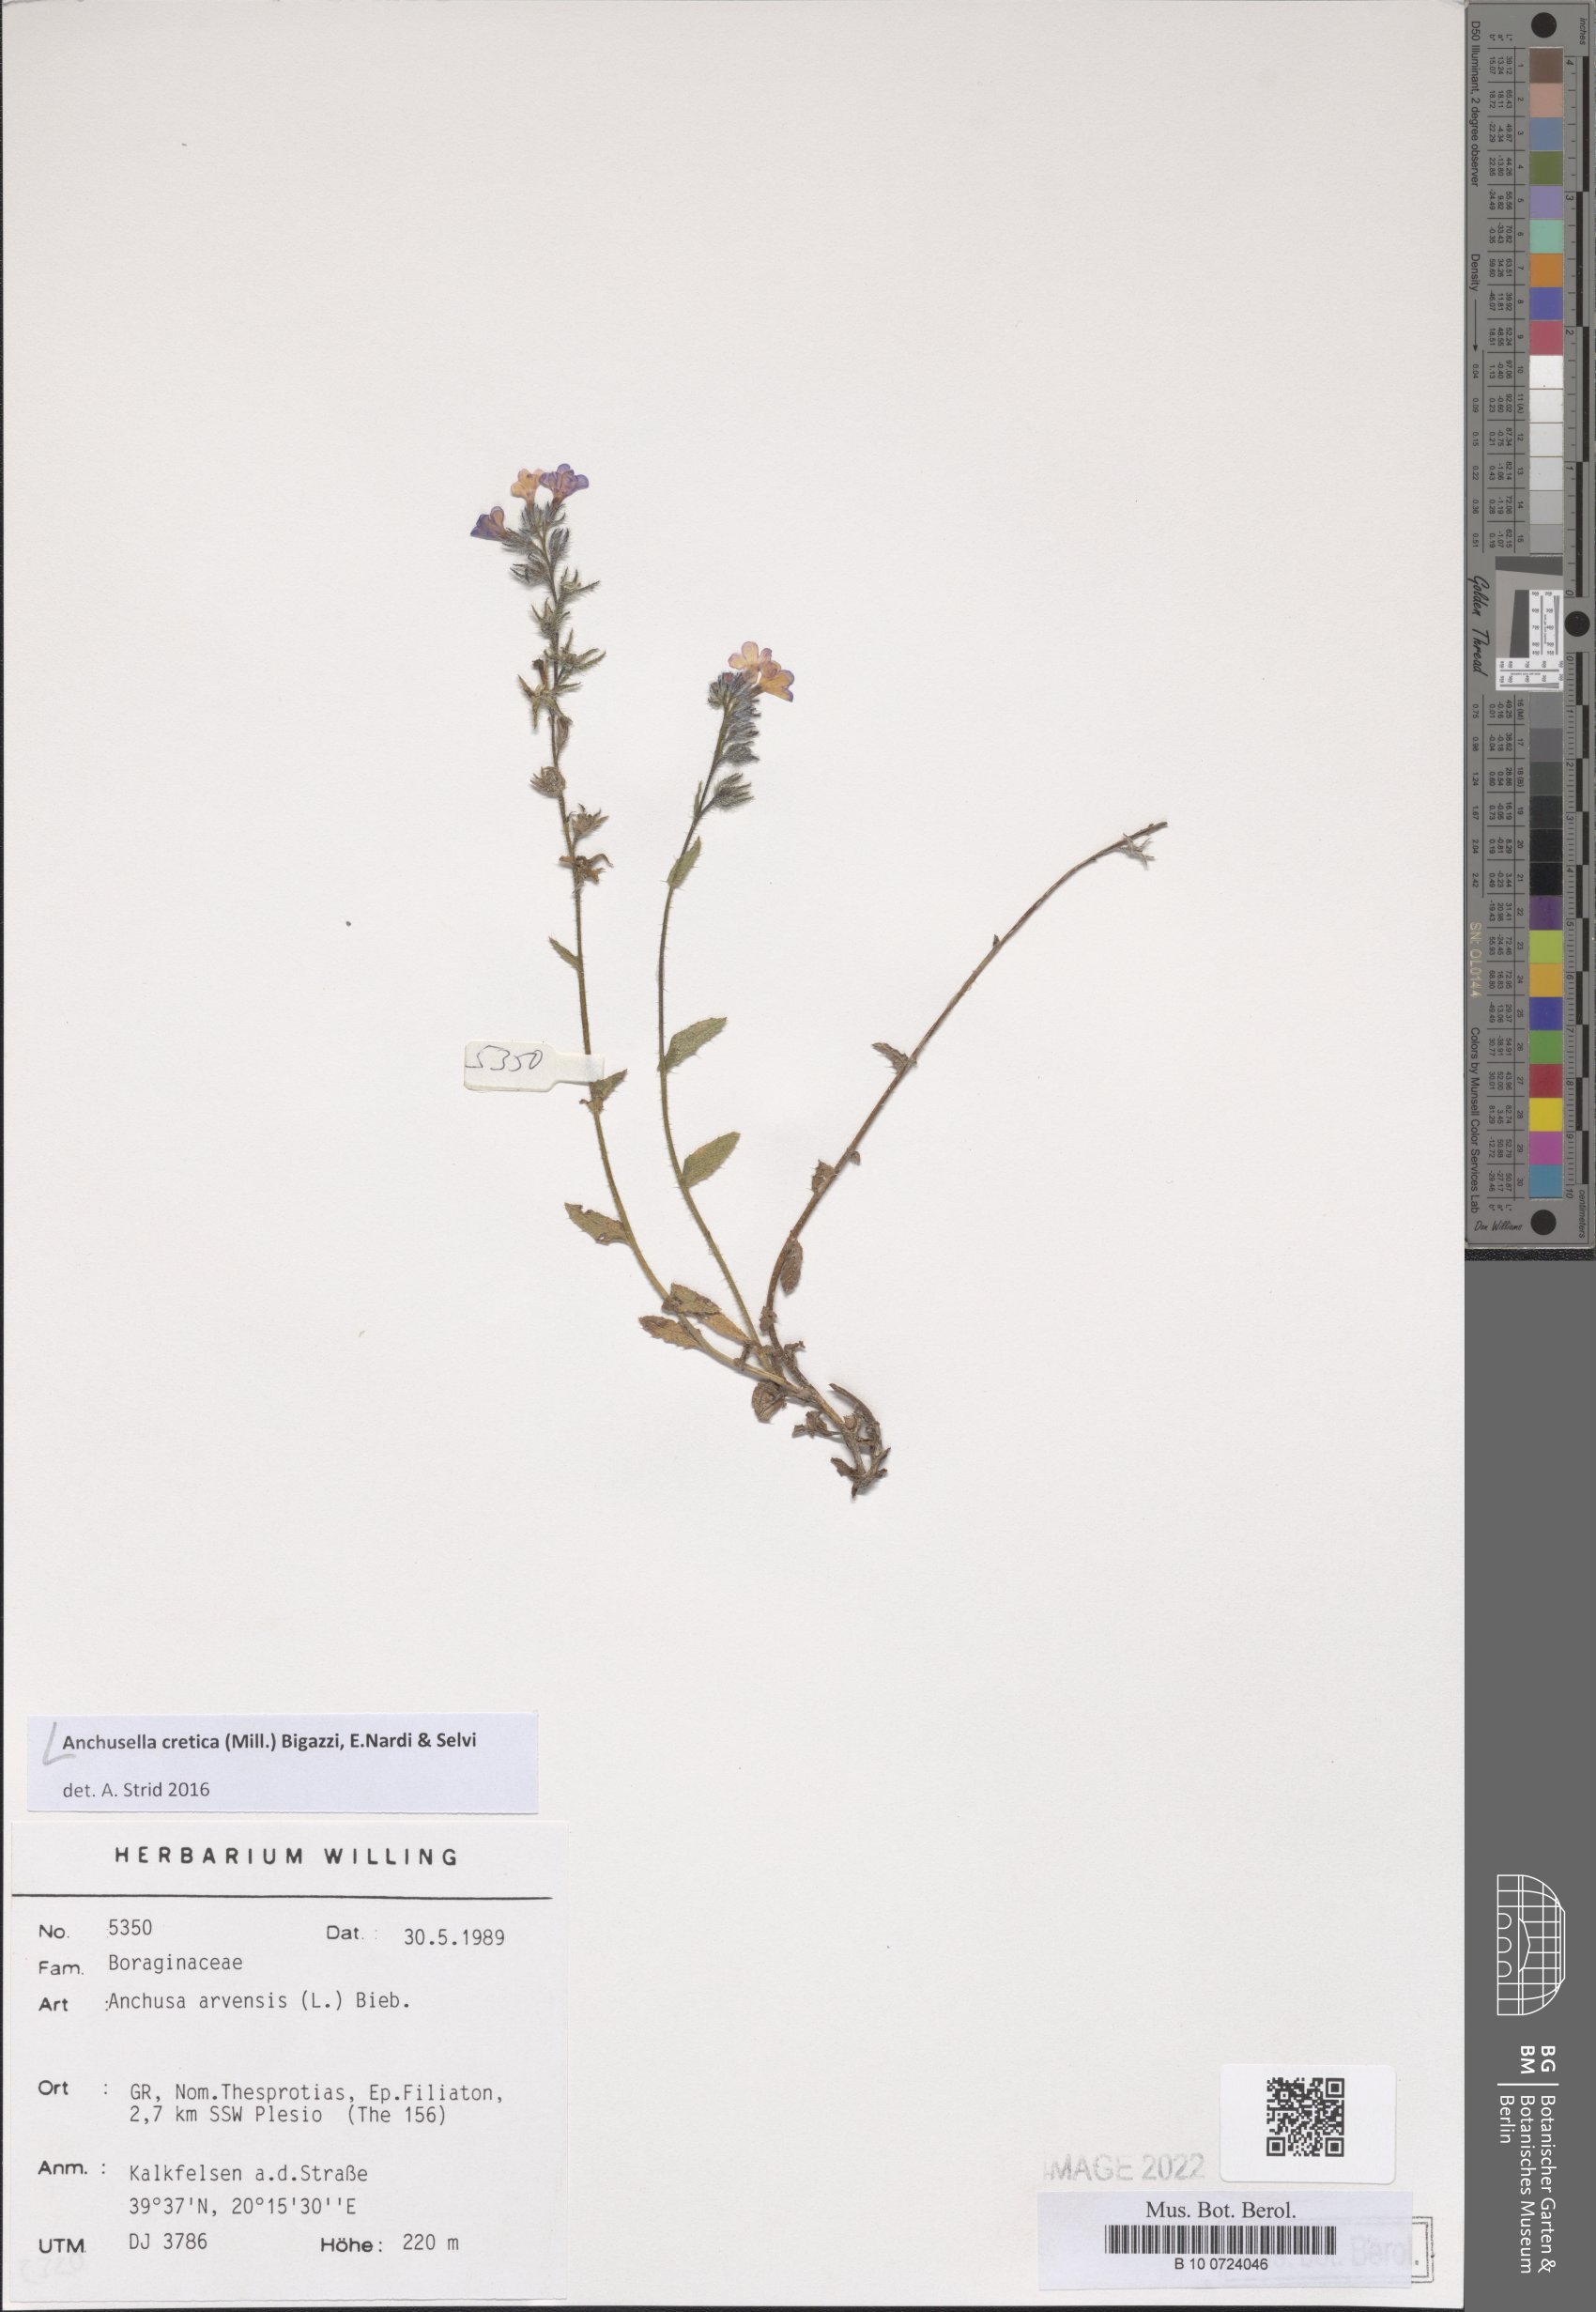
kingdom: Plantae
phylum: Tracheophyta
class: Magnoliopsida
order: Boraginales
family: Boraginaceae
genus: Anchusella
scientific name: Anchusella cretica
